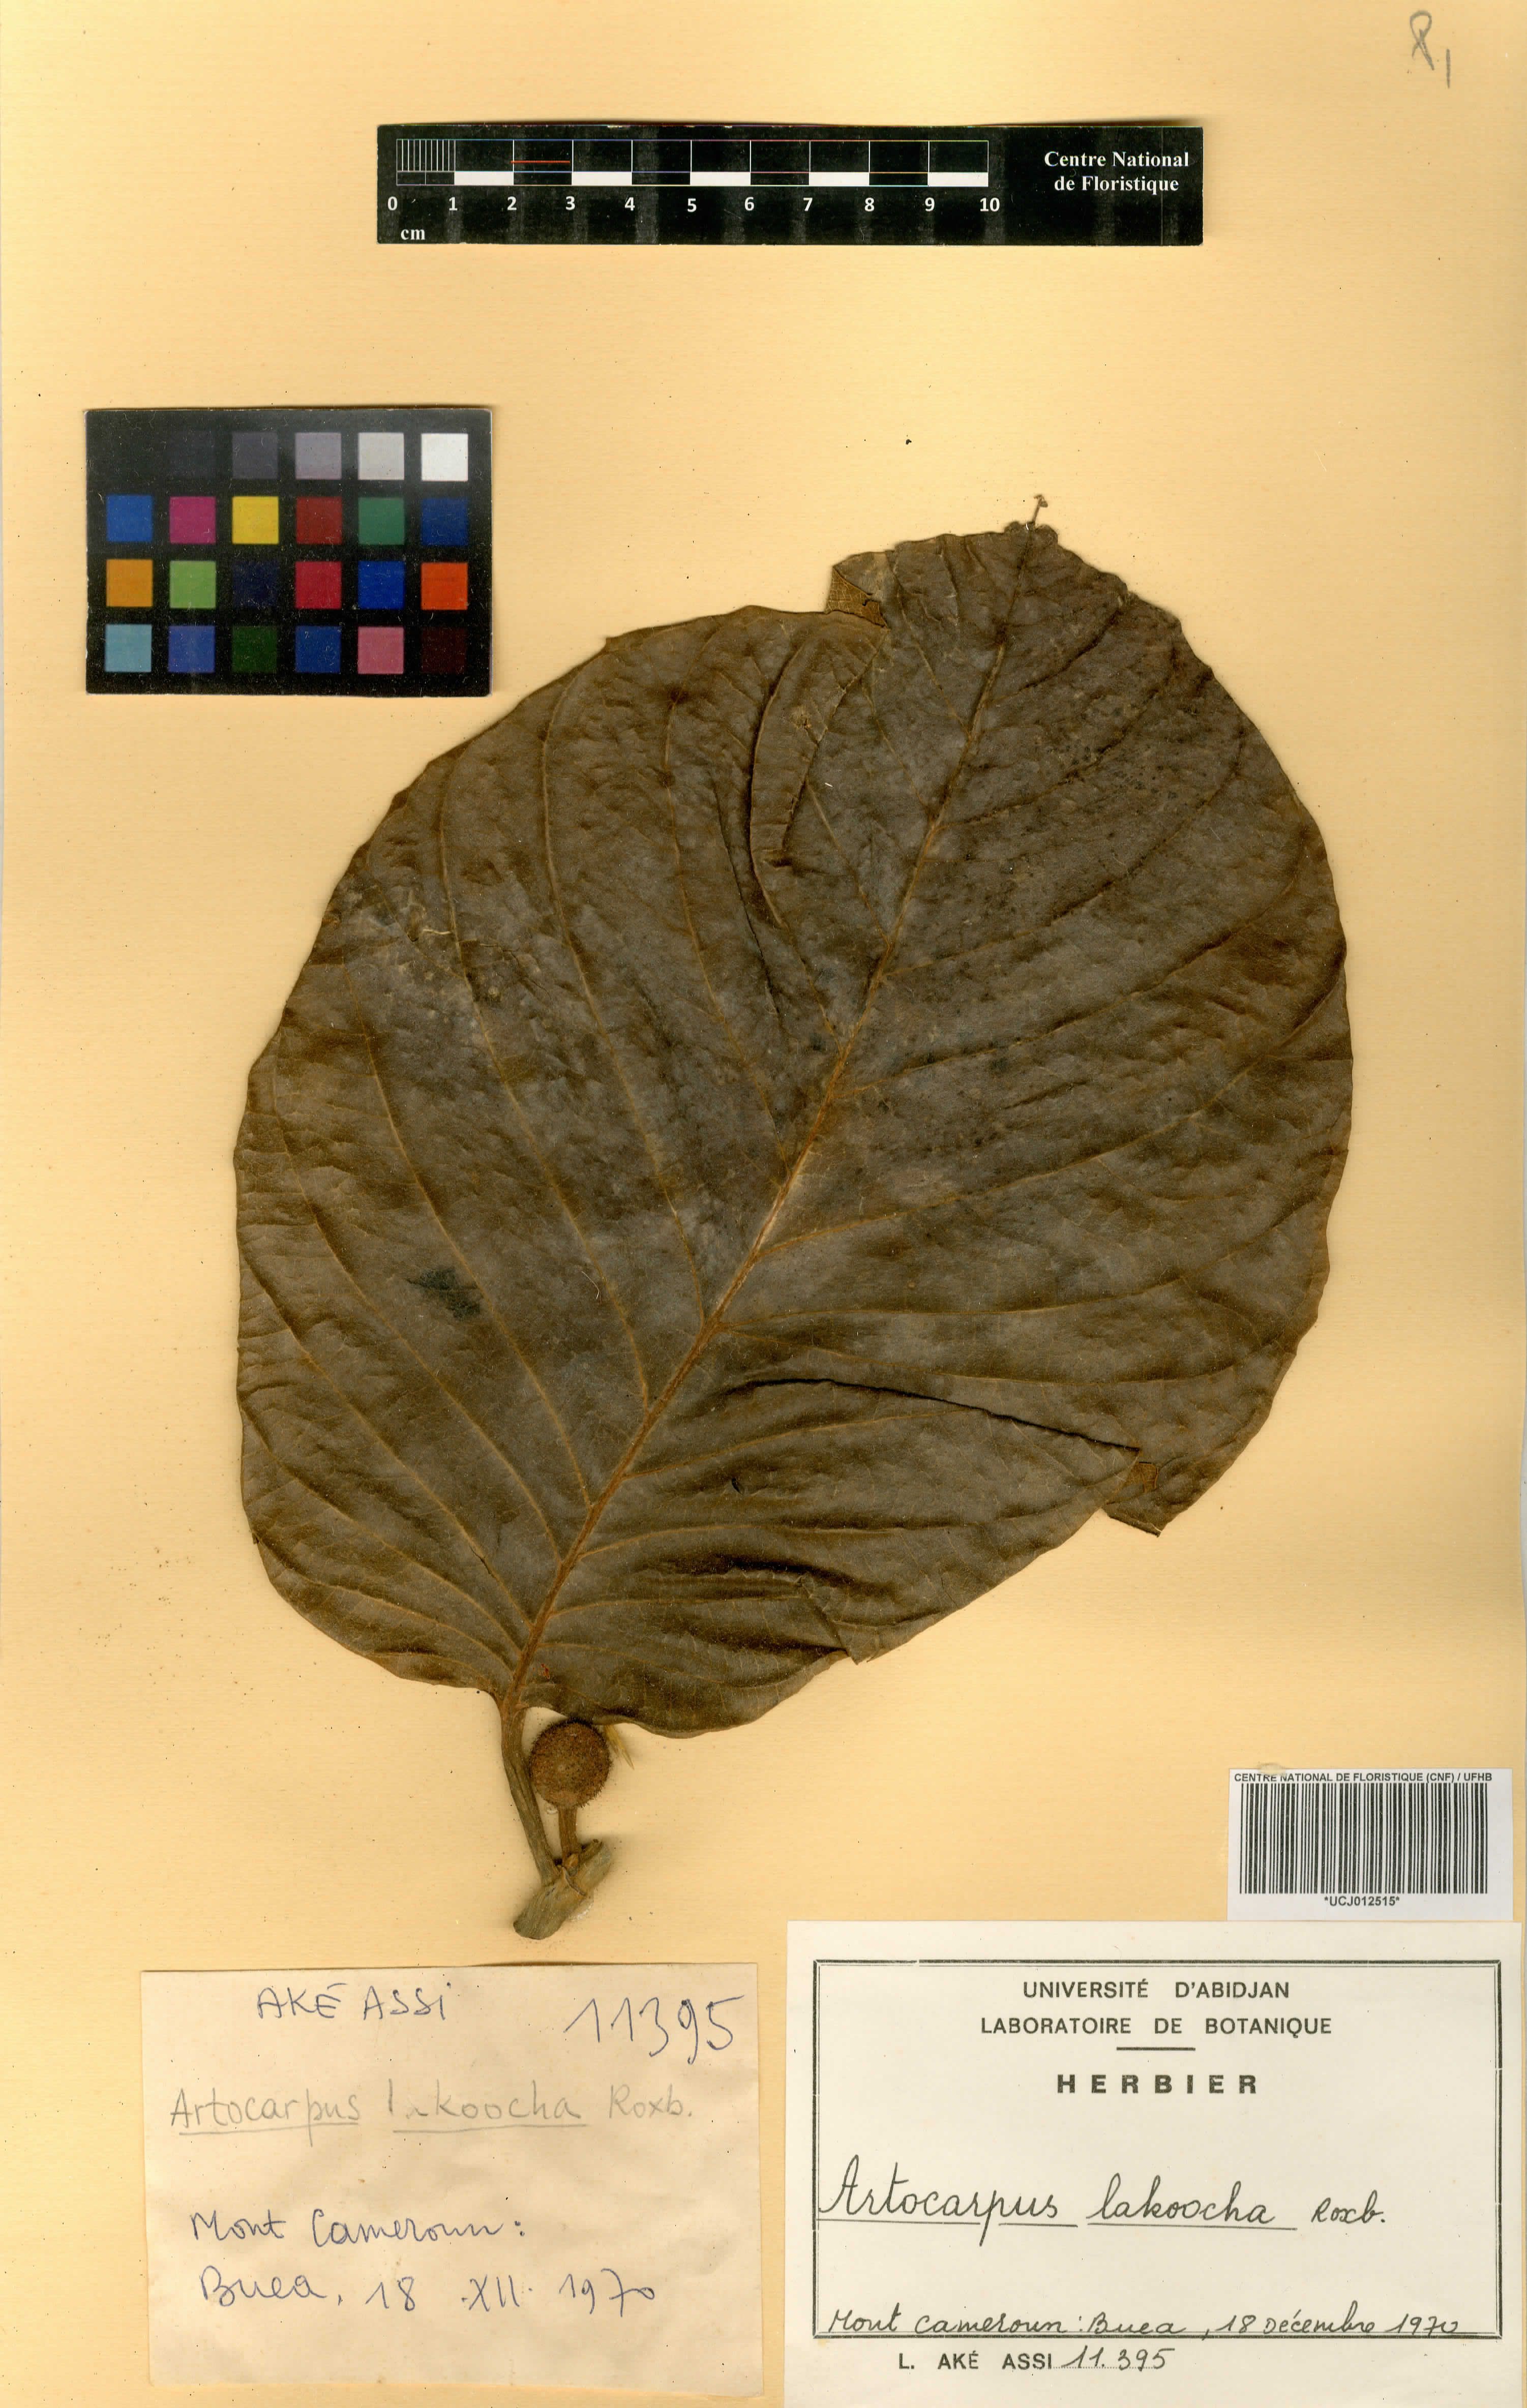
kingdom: Plantae
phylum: Tracheophyta
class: Magnoliopsida
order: Rosales
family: Moraceae
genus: Artocarpus
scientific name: Artocarpus lacucha
